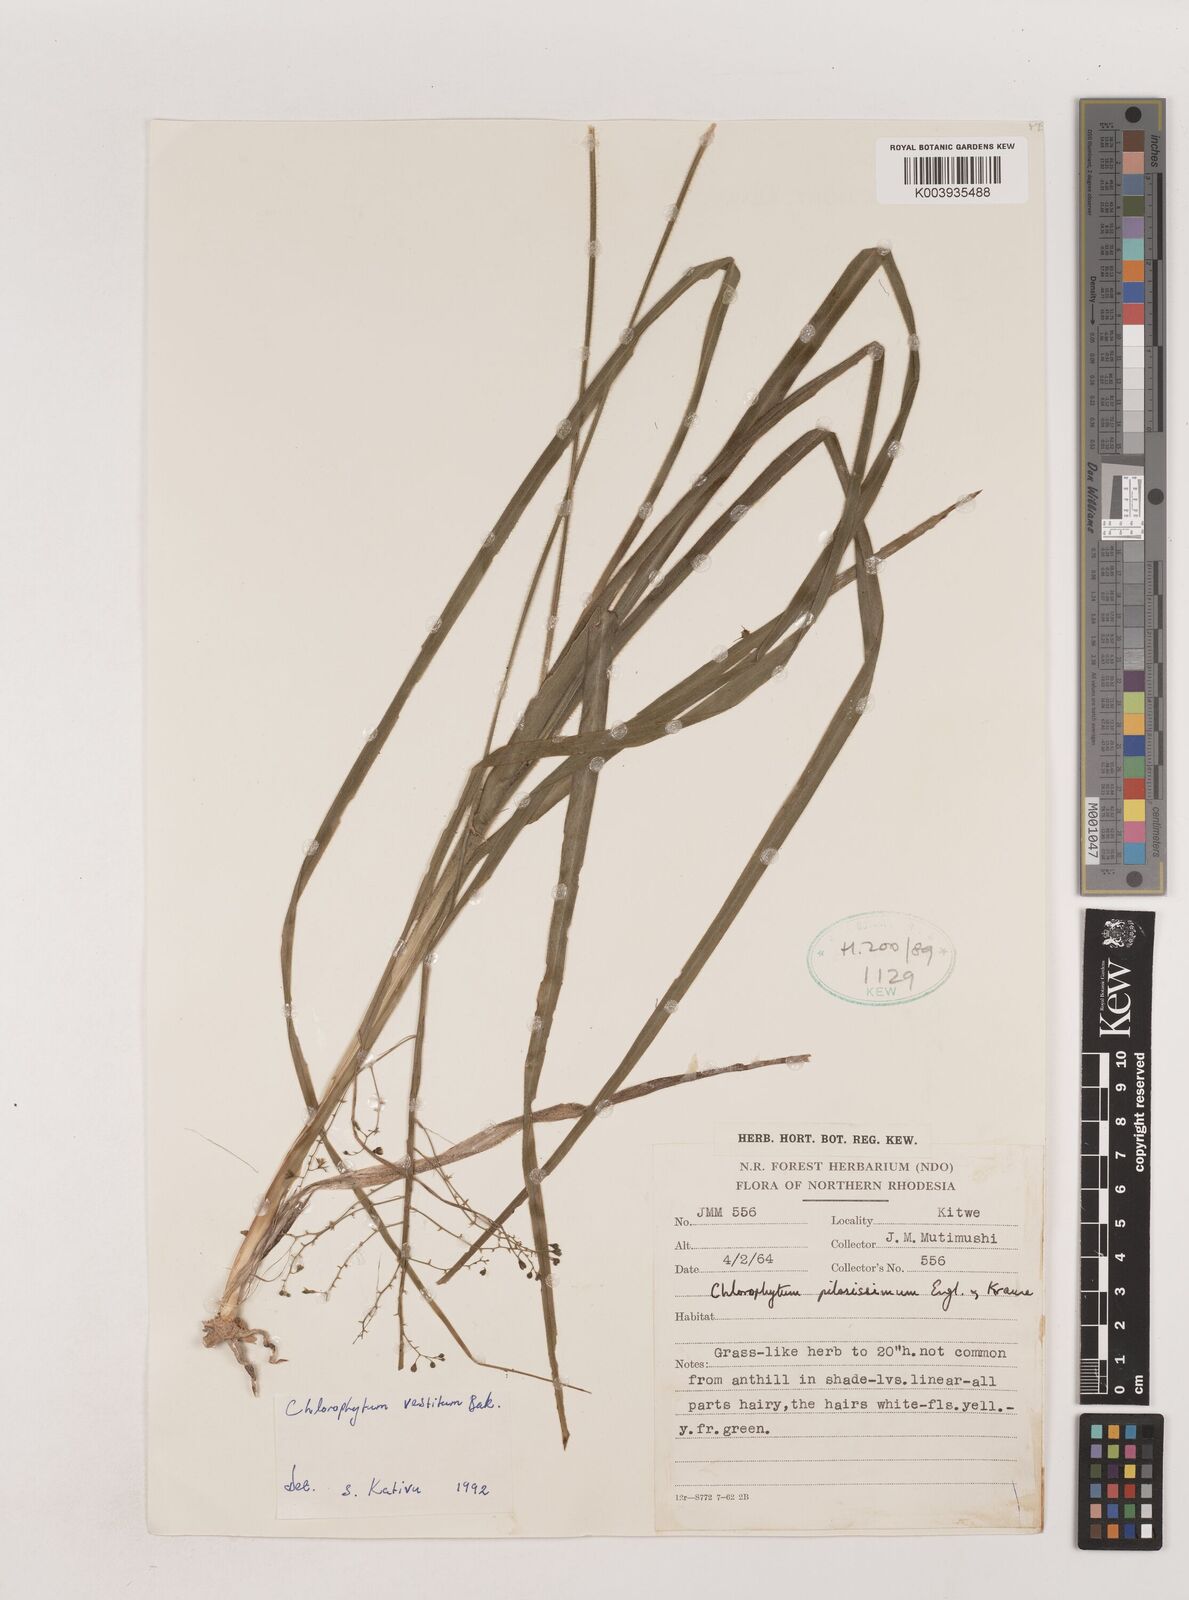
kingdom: Plantae
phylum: Tracheophyta
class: Liliopsida
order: Asparagales
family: Asparagaceae
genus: Chlorophytum
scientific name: Chlorophytum vestitum
